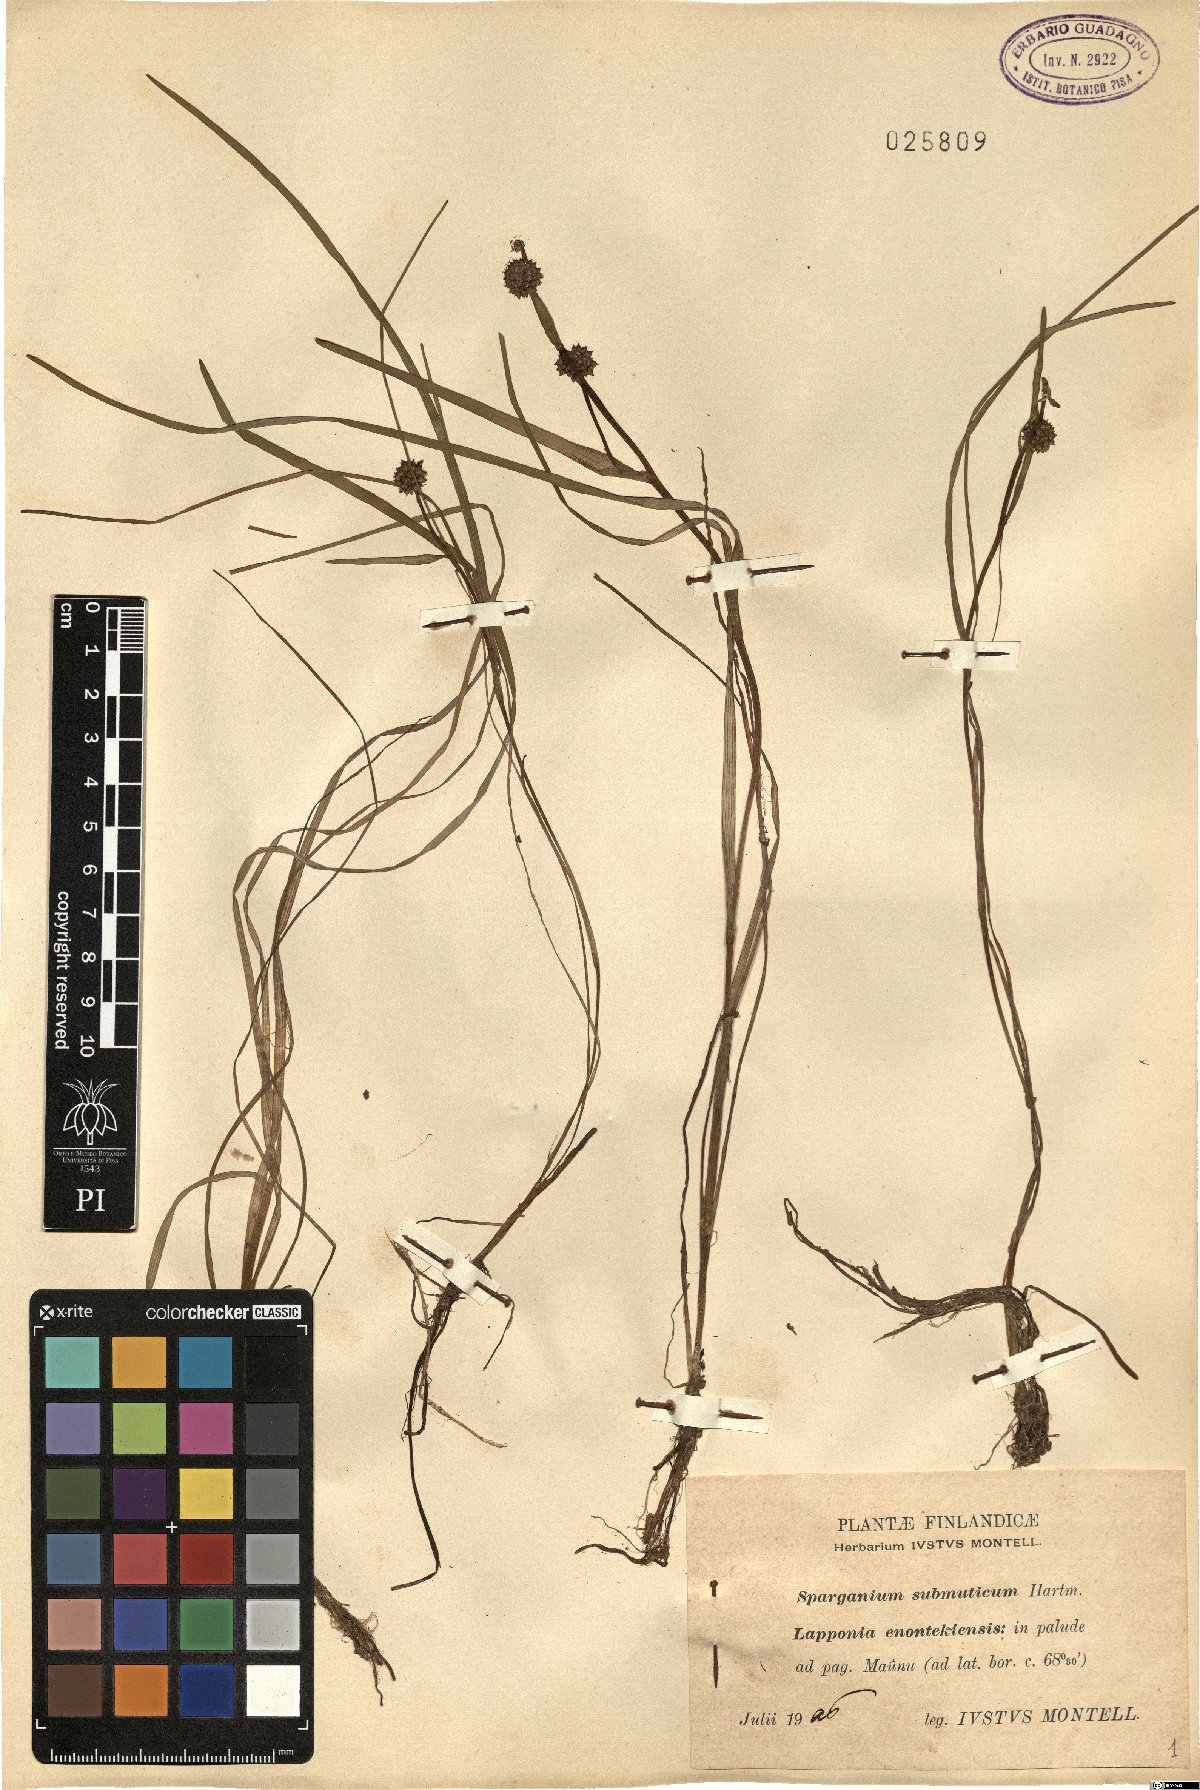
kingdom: Plantae
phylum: Tracheophyta
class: Liliopsida
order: Poales
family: Typhaceae
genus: Sparganium
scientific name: Sparganium hyperboreum
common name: Arctic burreed
